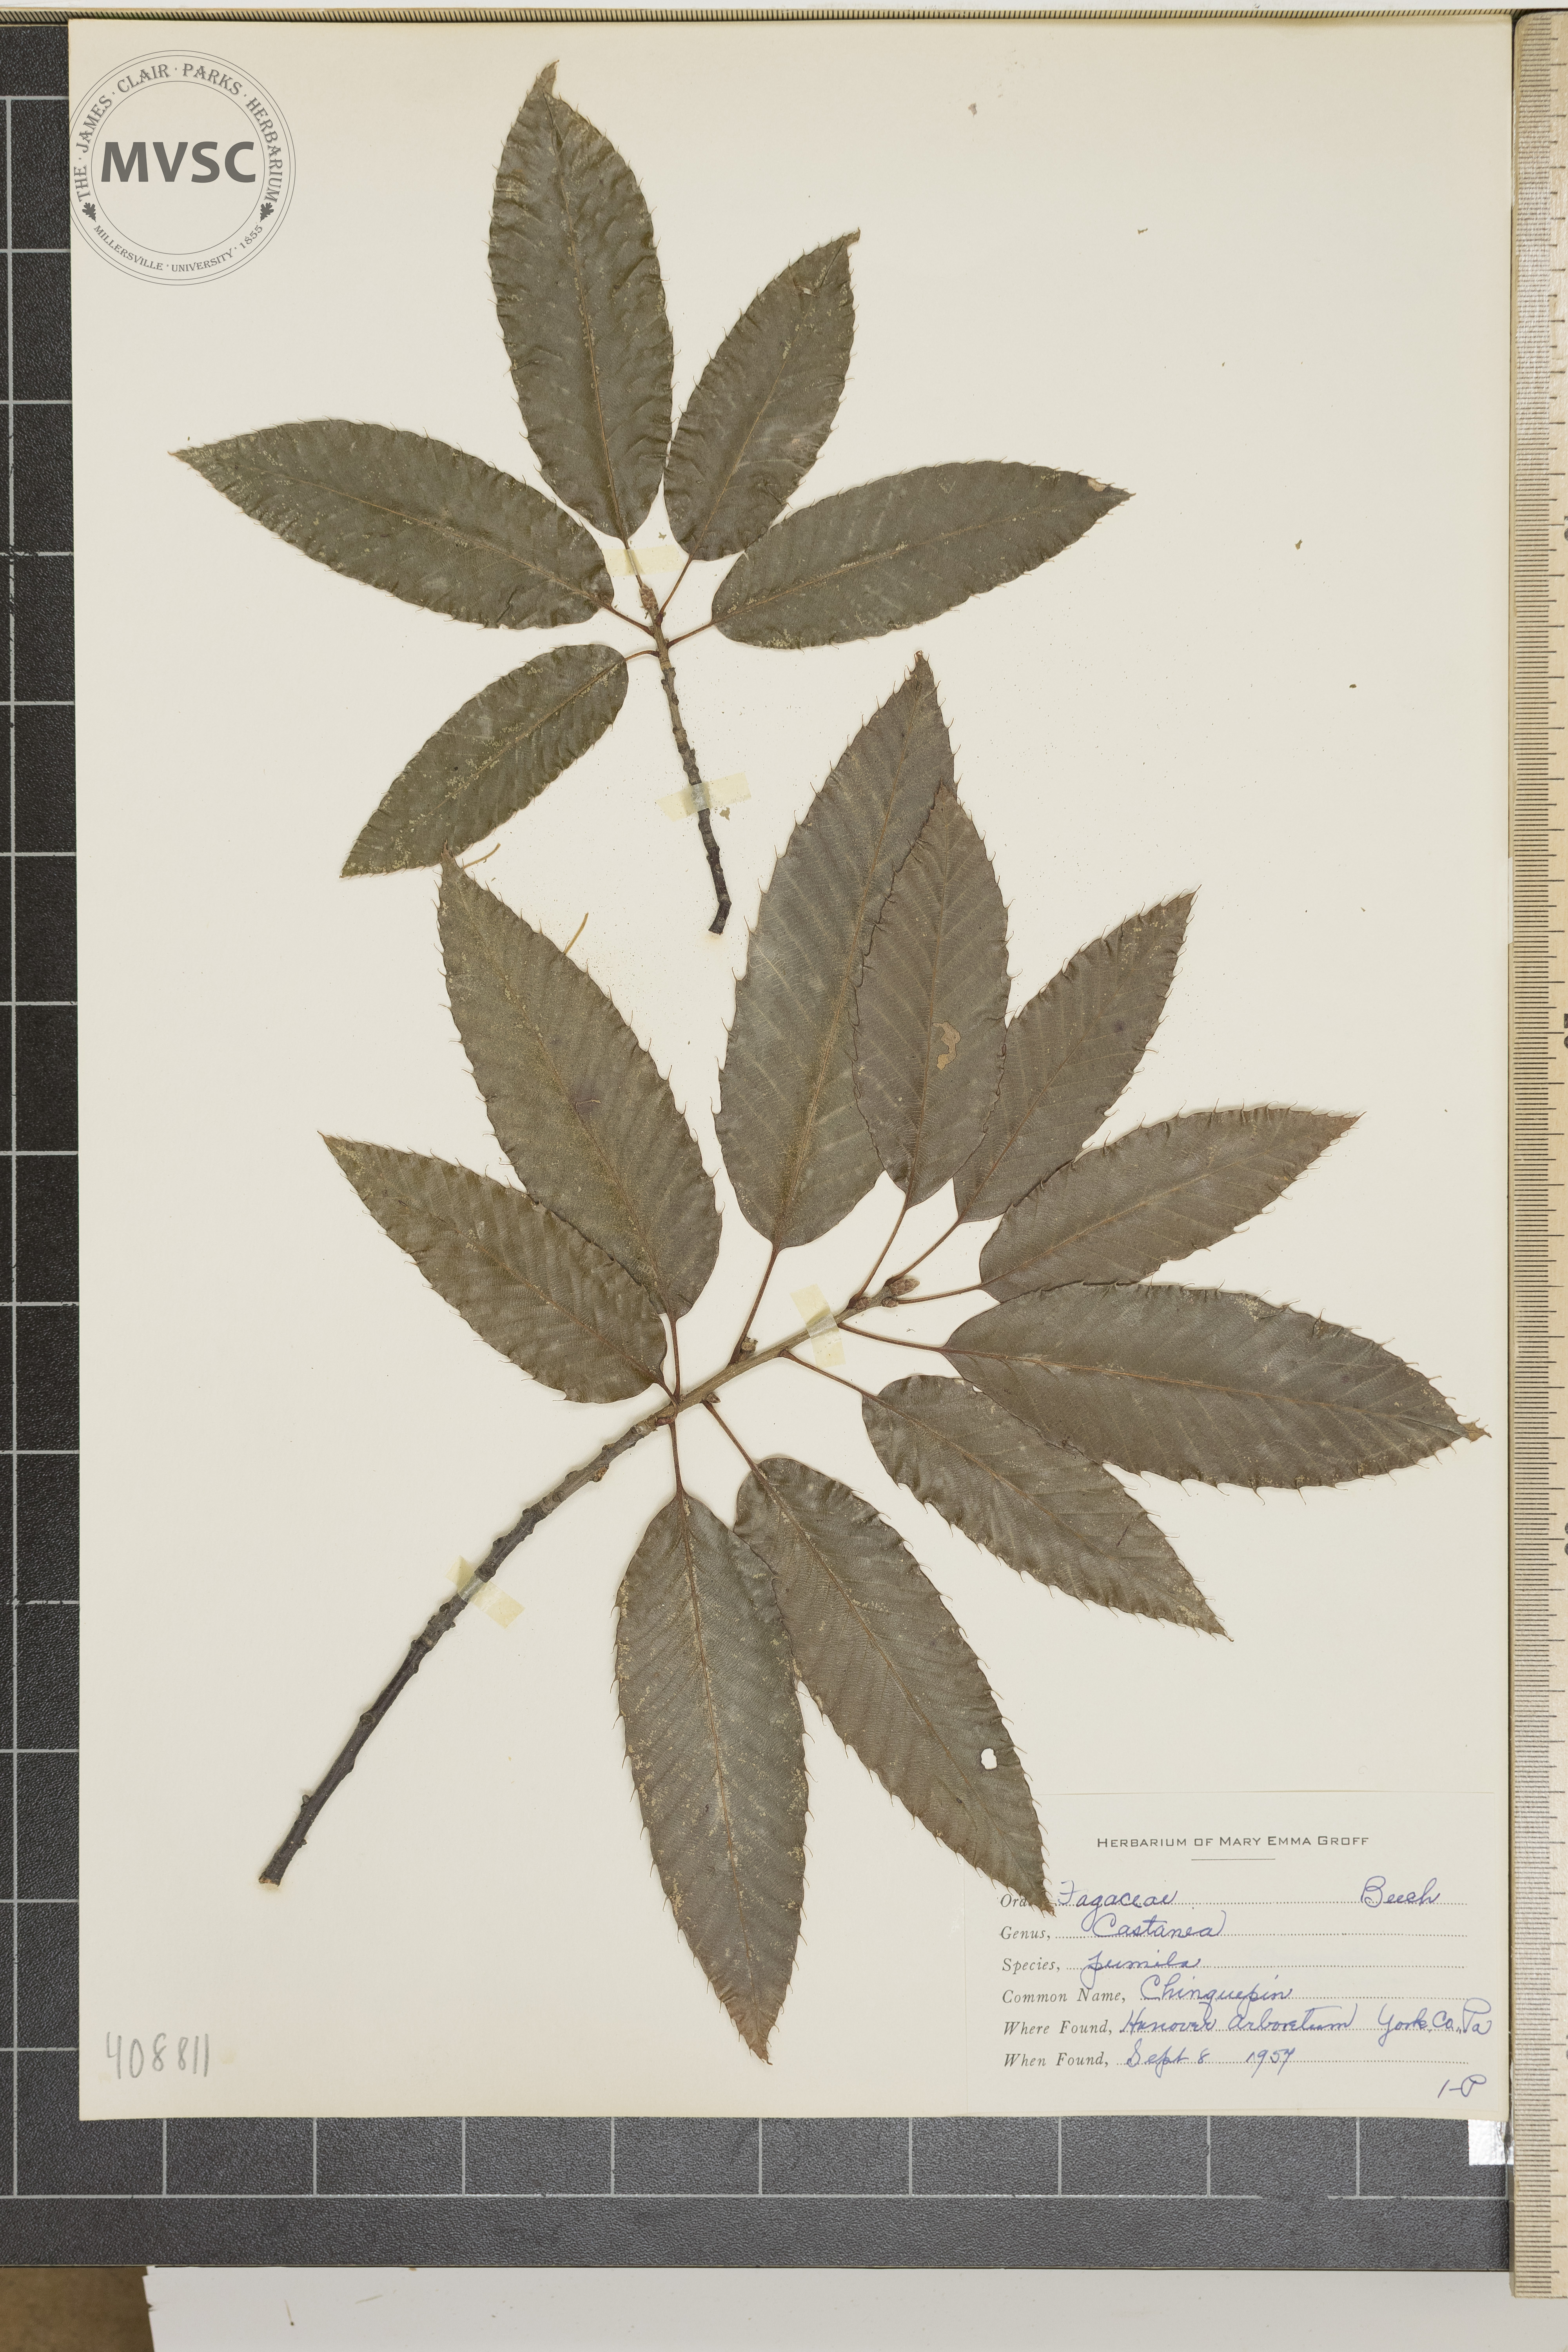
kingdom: Plantae
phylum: Tracheophyta
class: Magnoliopsida
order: Fagales
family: Fagaceae
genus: Castanea
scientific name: Castanea pumila
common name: Chinquapin
